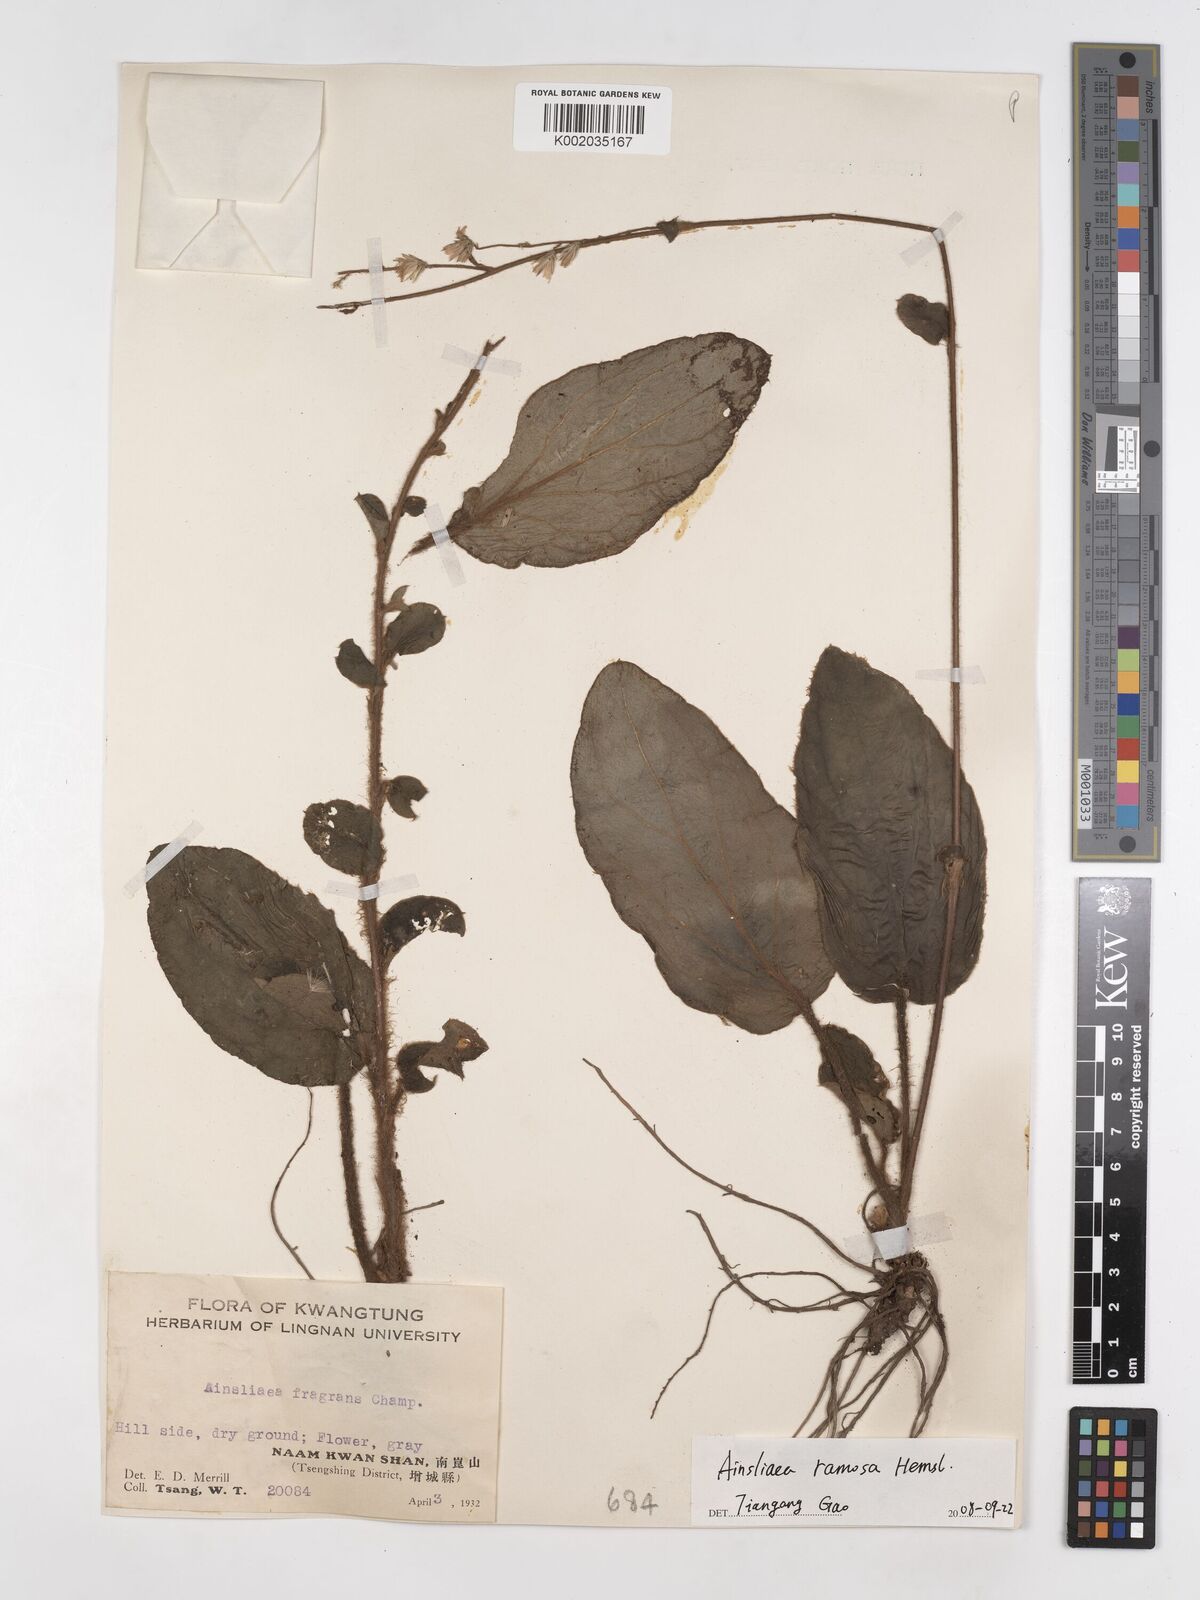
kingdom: Plantae
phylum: Tracheophyta
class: Magnoliopsida
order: Asterales
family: Asteraceae
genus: Ainsliaea
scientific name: Ainsliaea ramosa
